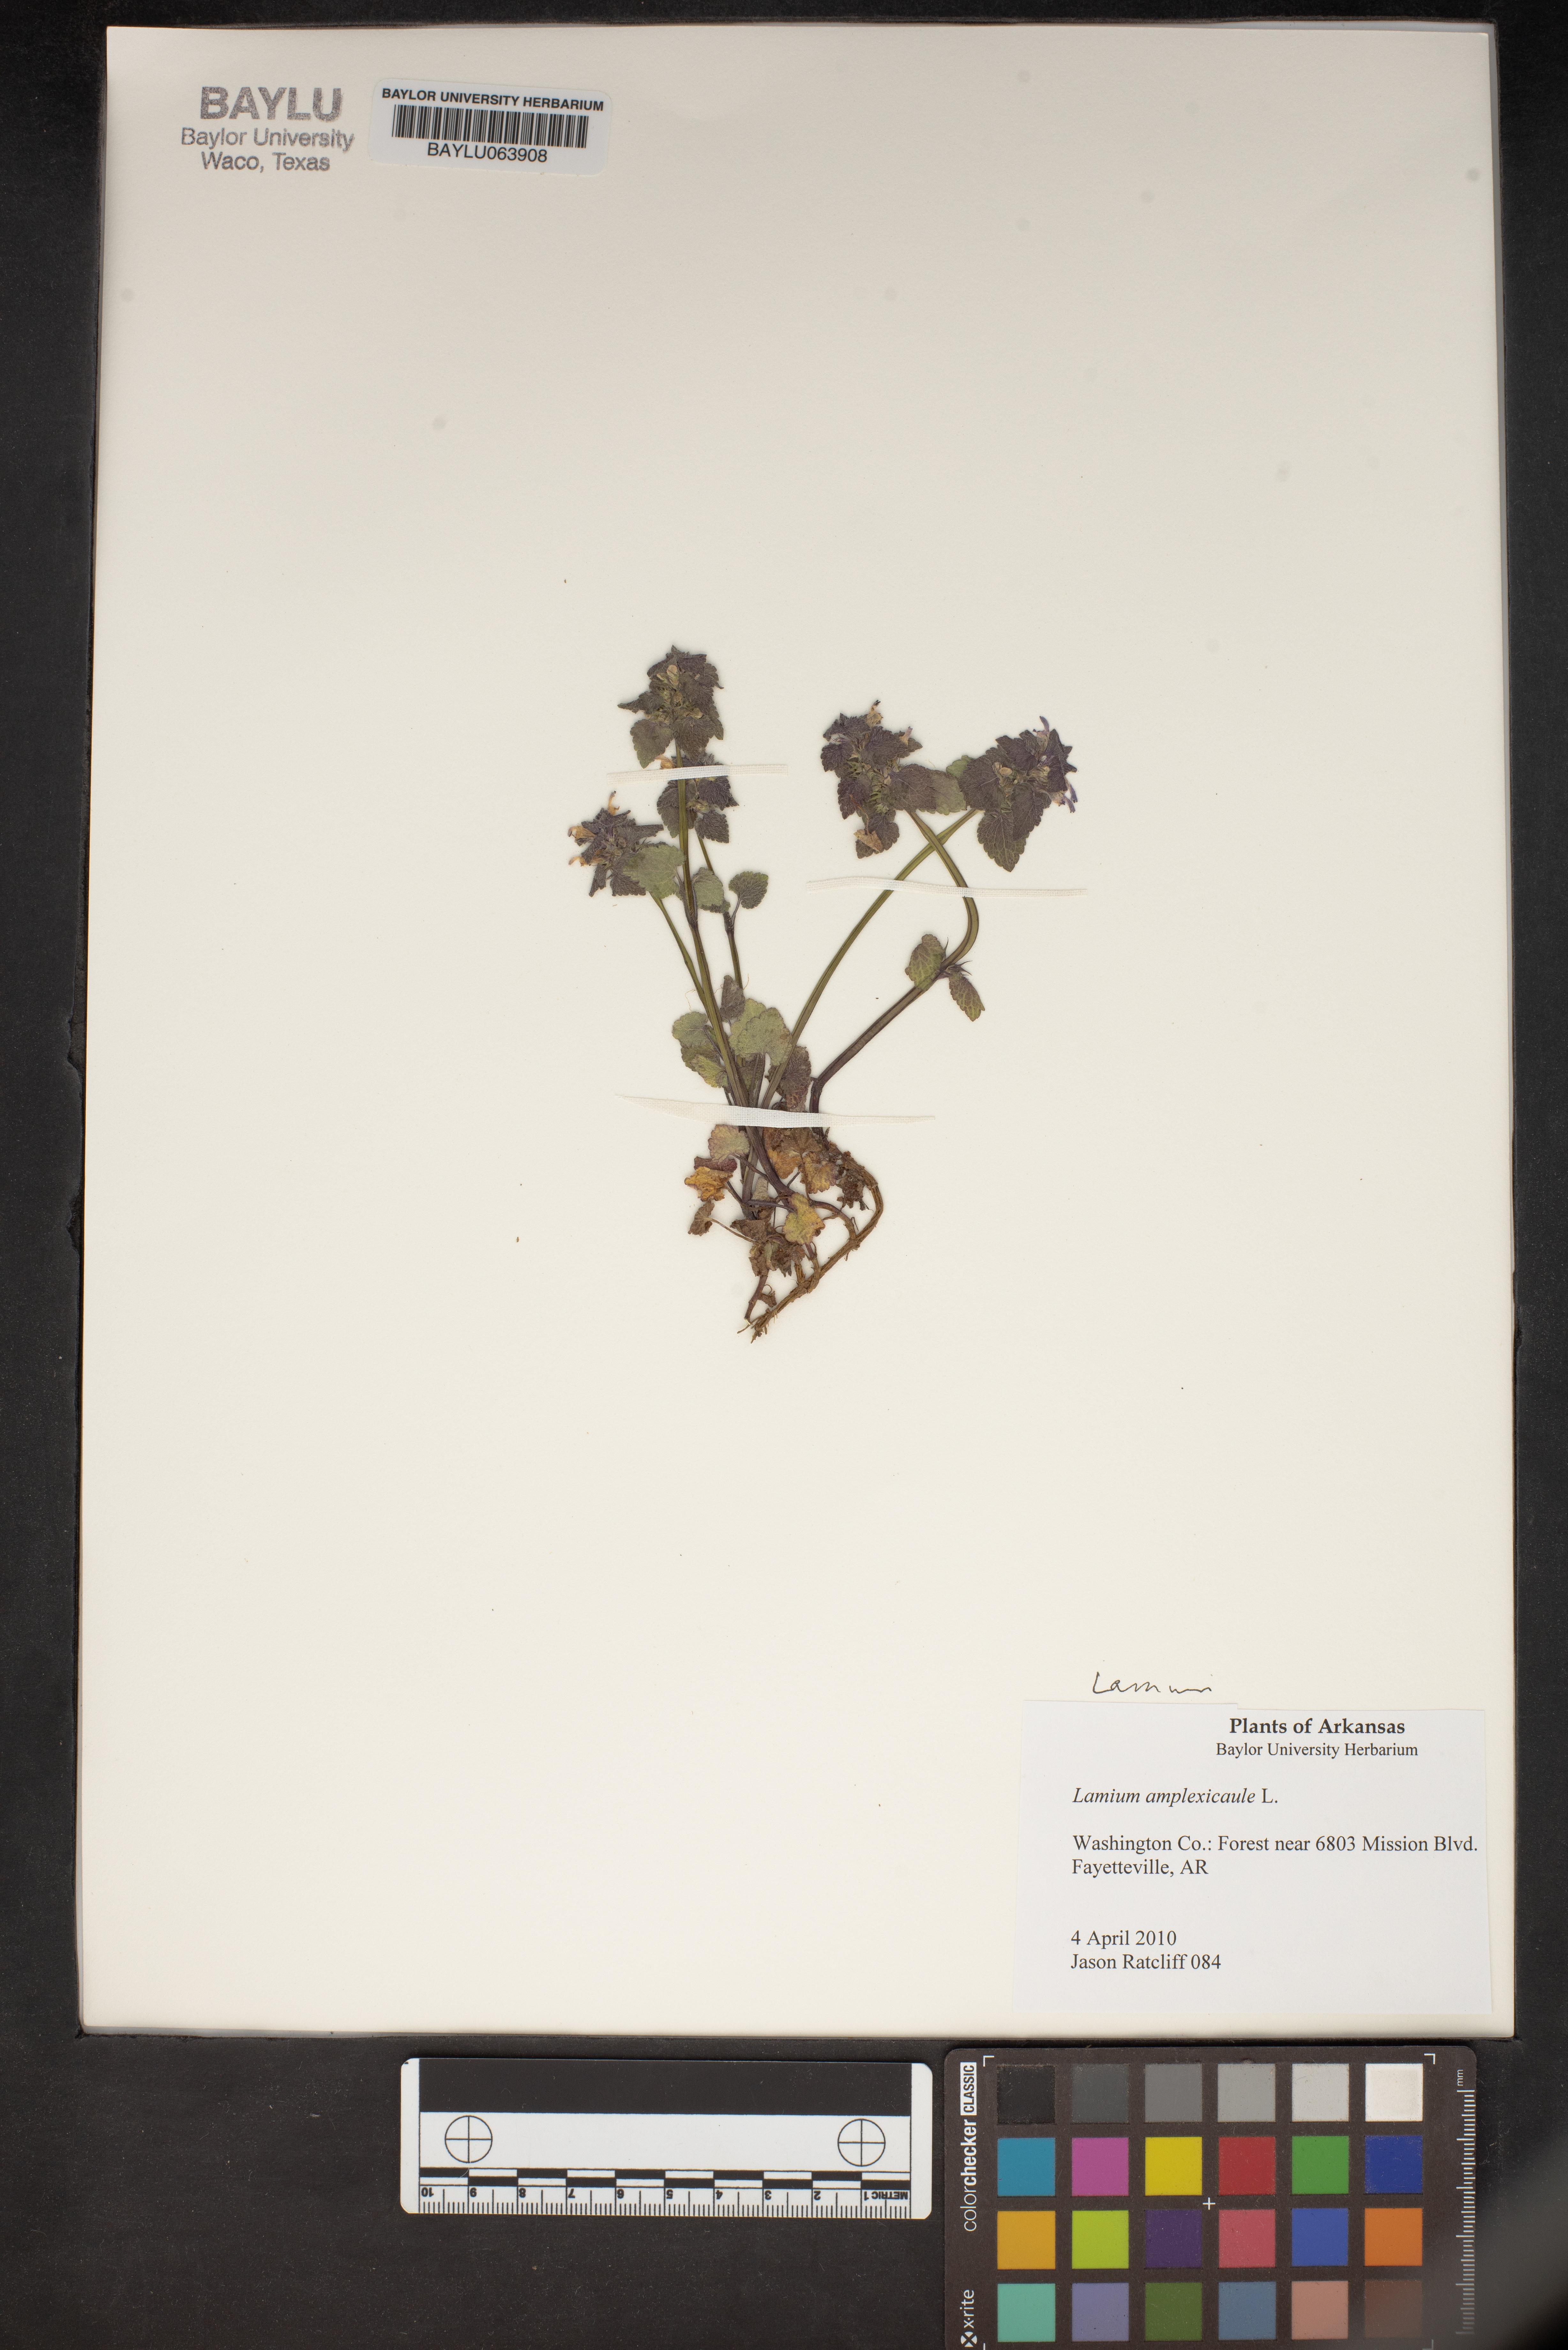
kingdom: Plantae
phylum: Tracheophyta
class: Magnoliopsida
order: Lamiales
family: Lamiaceae
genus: Lamium
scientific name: Lamium amplexicaule
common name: Henbit dead-nettle
